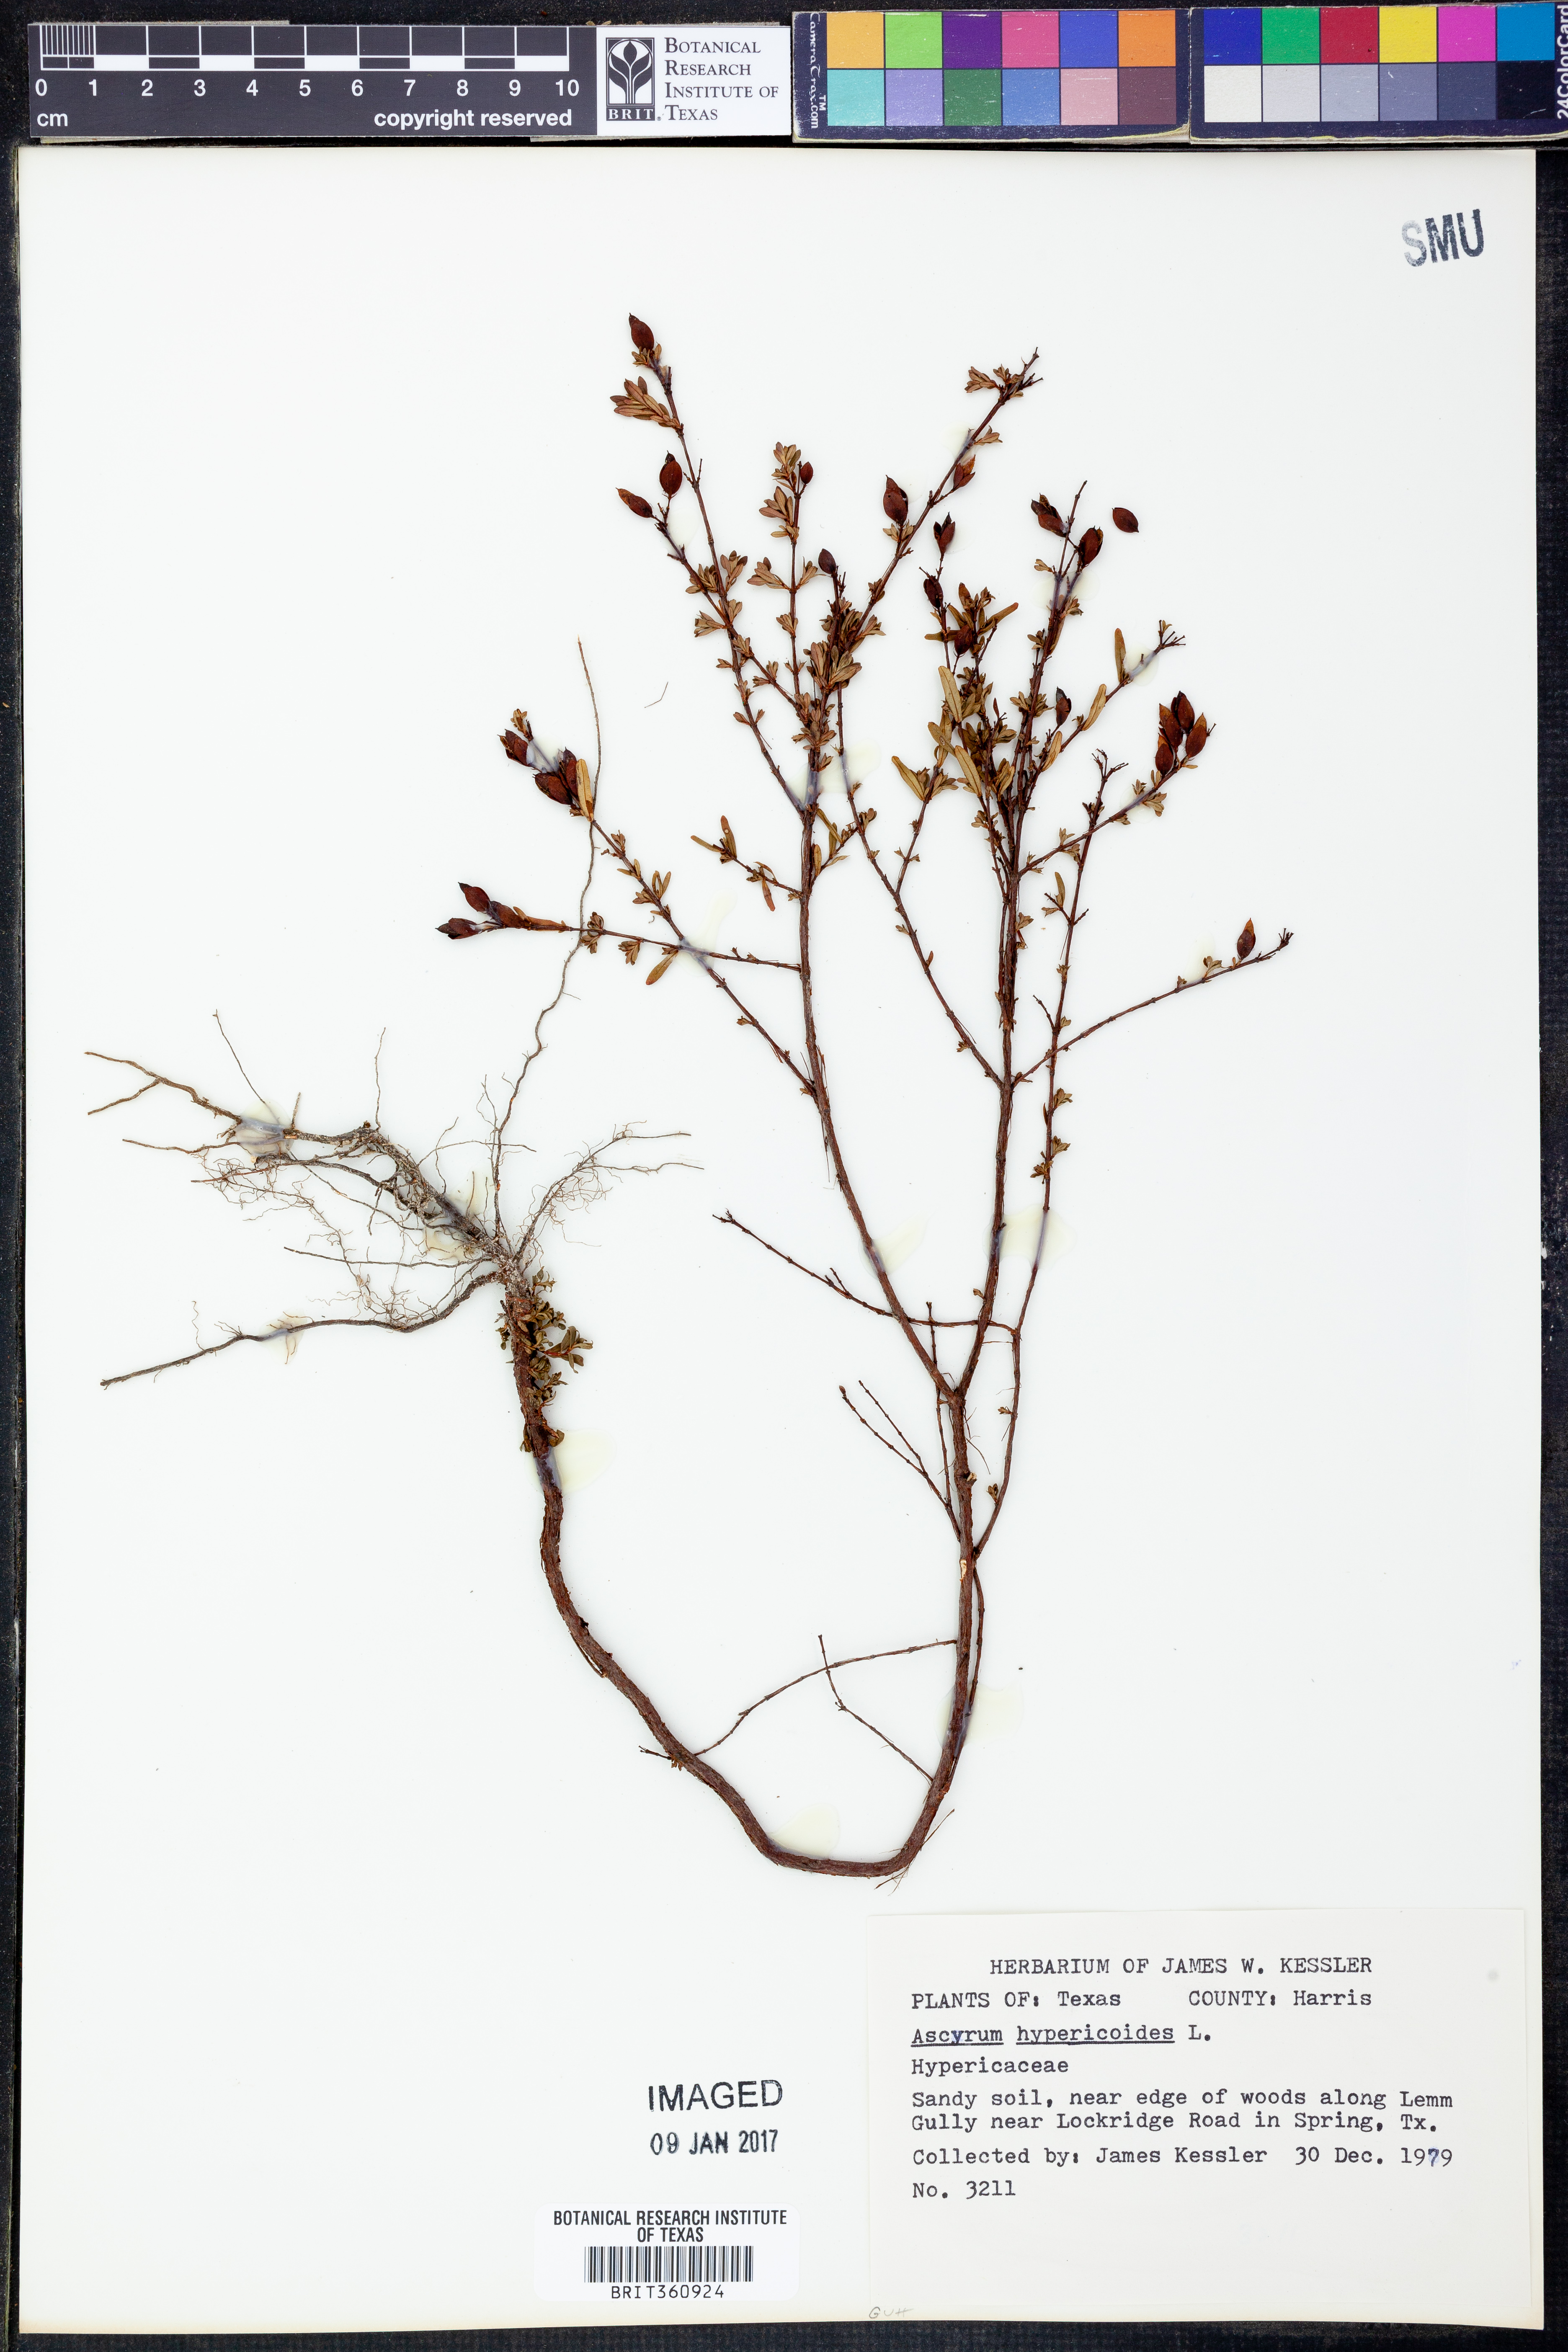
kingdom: Plantae
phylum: Tracheophyta
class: Magnoliopsida
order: Malpighiales
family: Hypericaceae
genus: Hypericum
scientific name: Hypericum hypericoides
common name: St. andrew's cross
